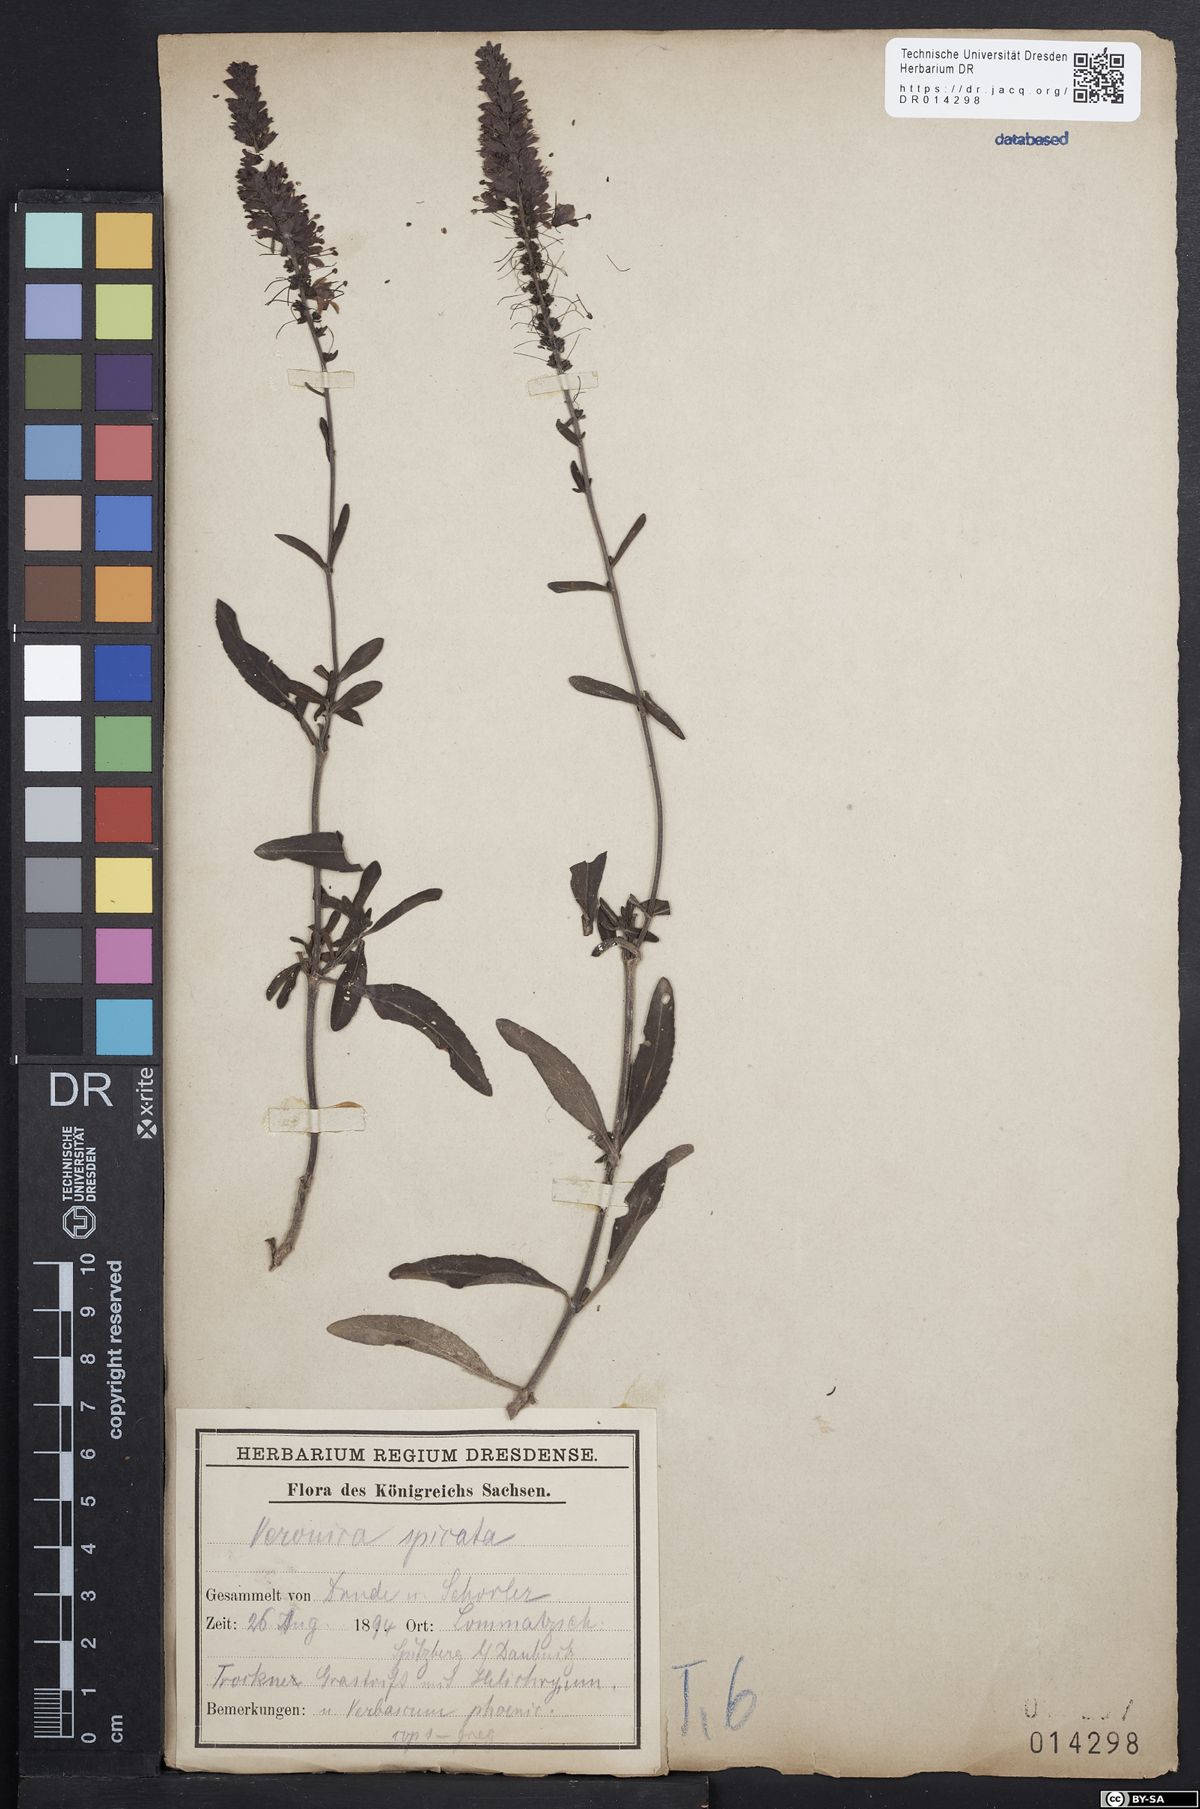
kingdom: Plantae
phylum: Tracheophyta
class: Magnoliopsida
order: Lamiales
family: Plantaginaceae
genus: Veronica
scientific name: Veronica spicata
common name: Spiked speedwell
